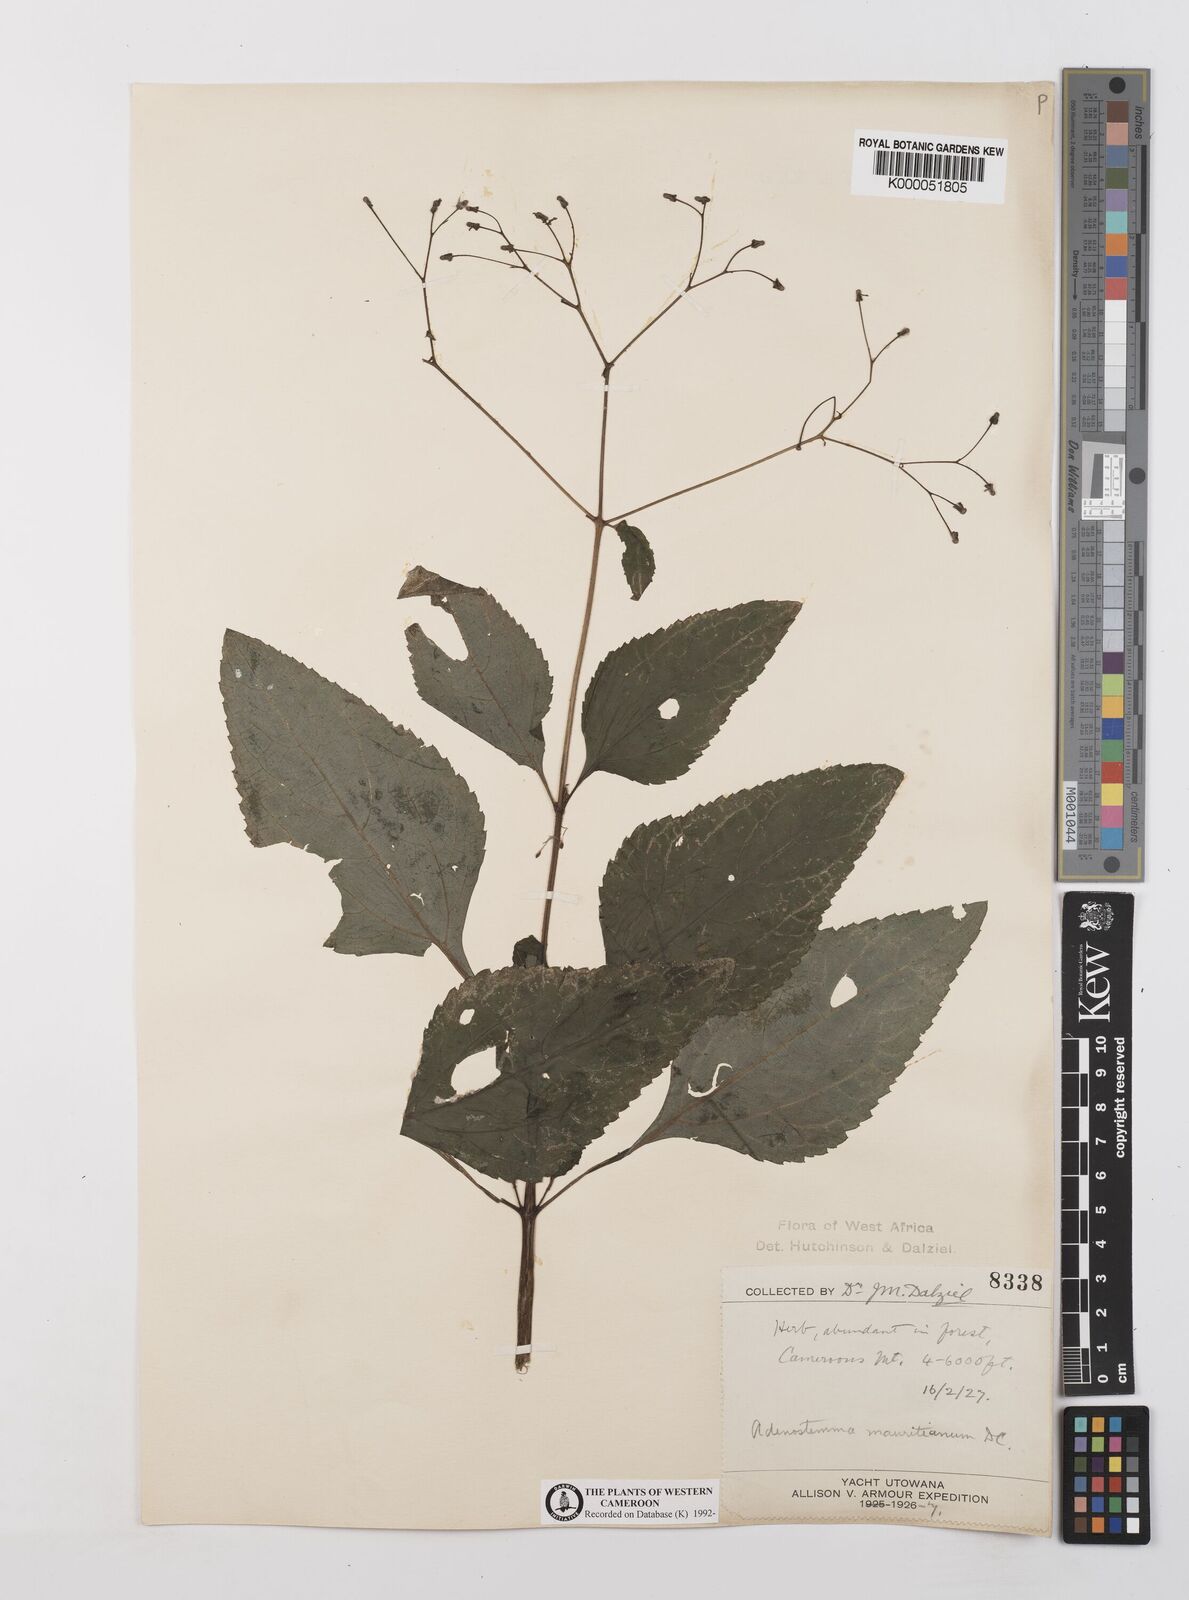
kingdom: Plantae
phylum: Tracheophyta
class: Magnoliopsida
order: Asterales
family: Asteraceae
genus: Adenostemma
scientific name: Adenostemma mauritianum
